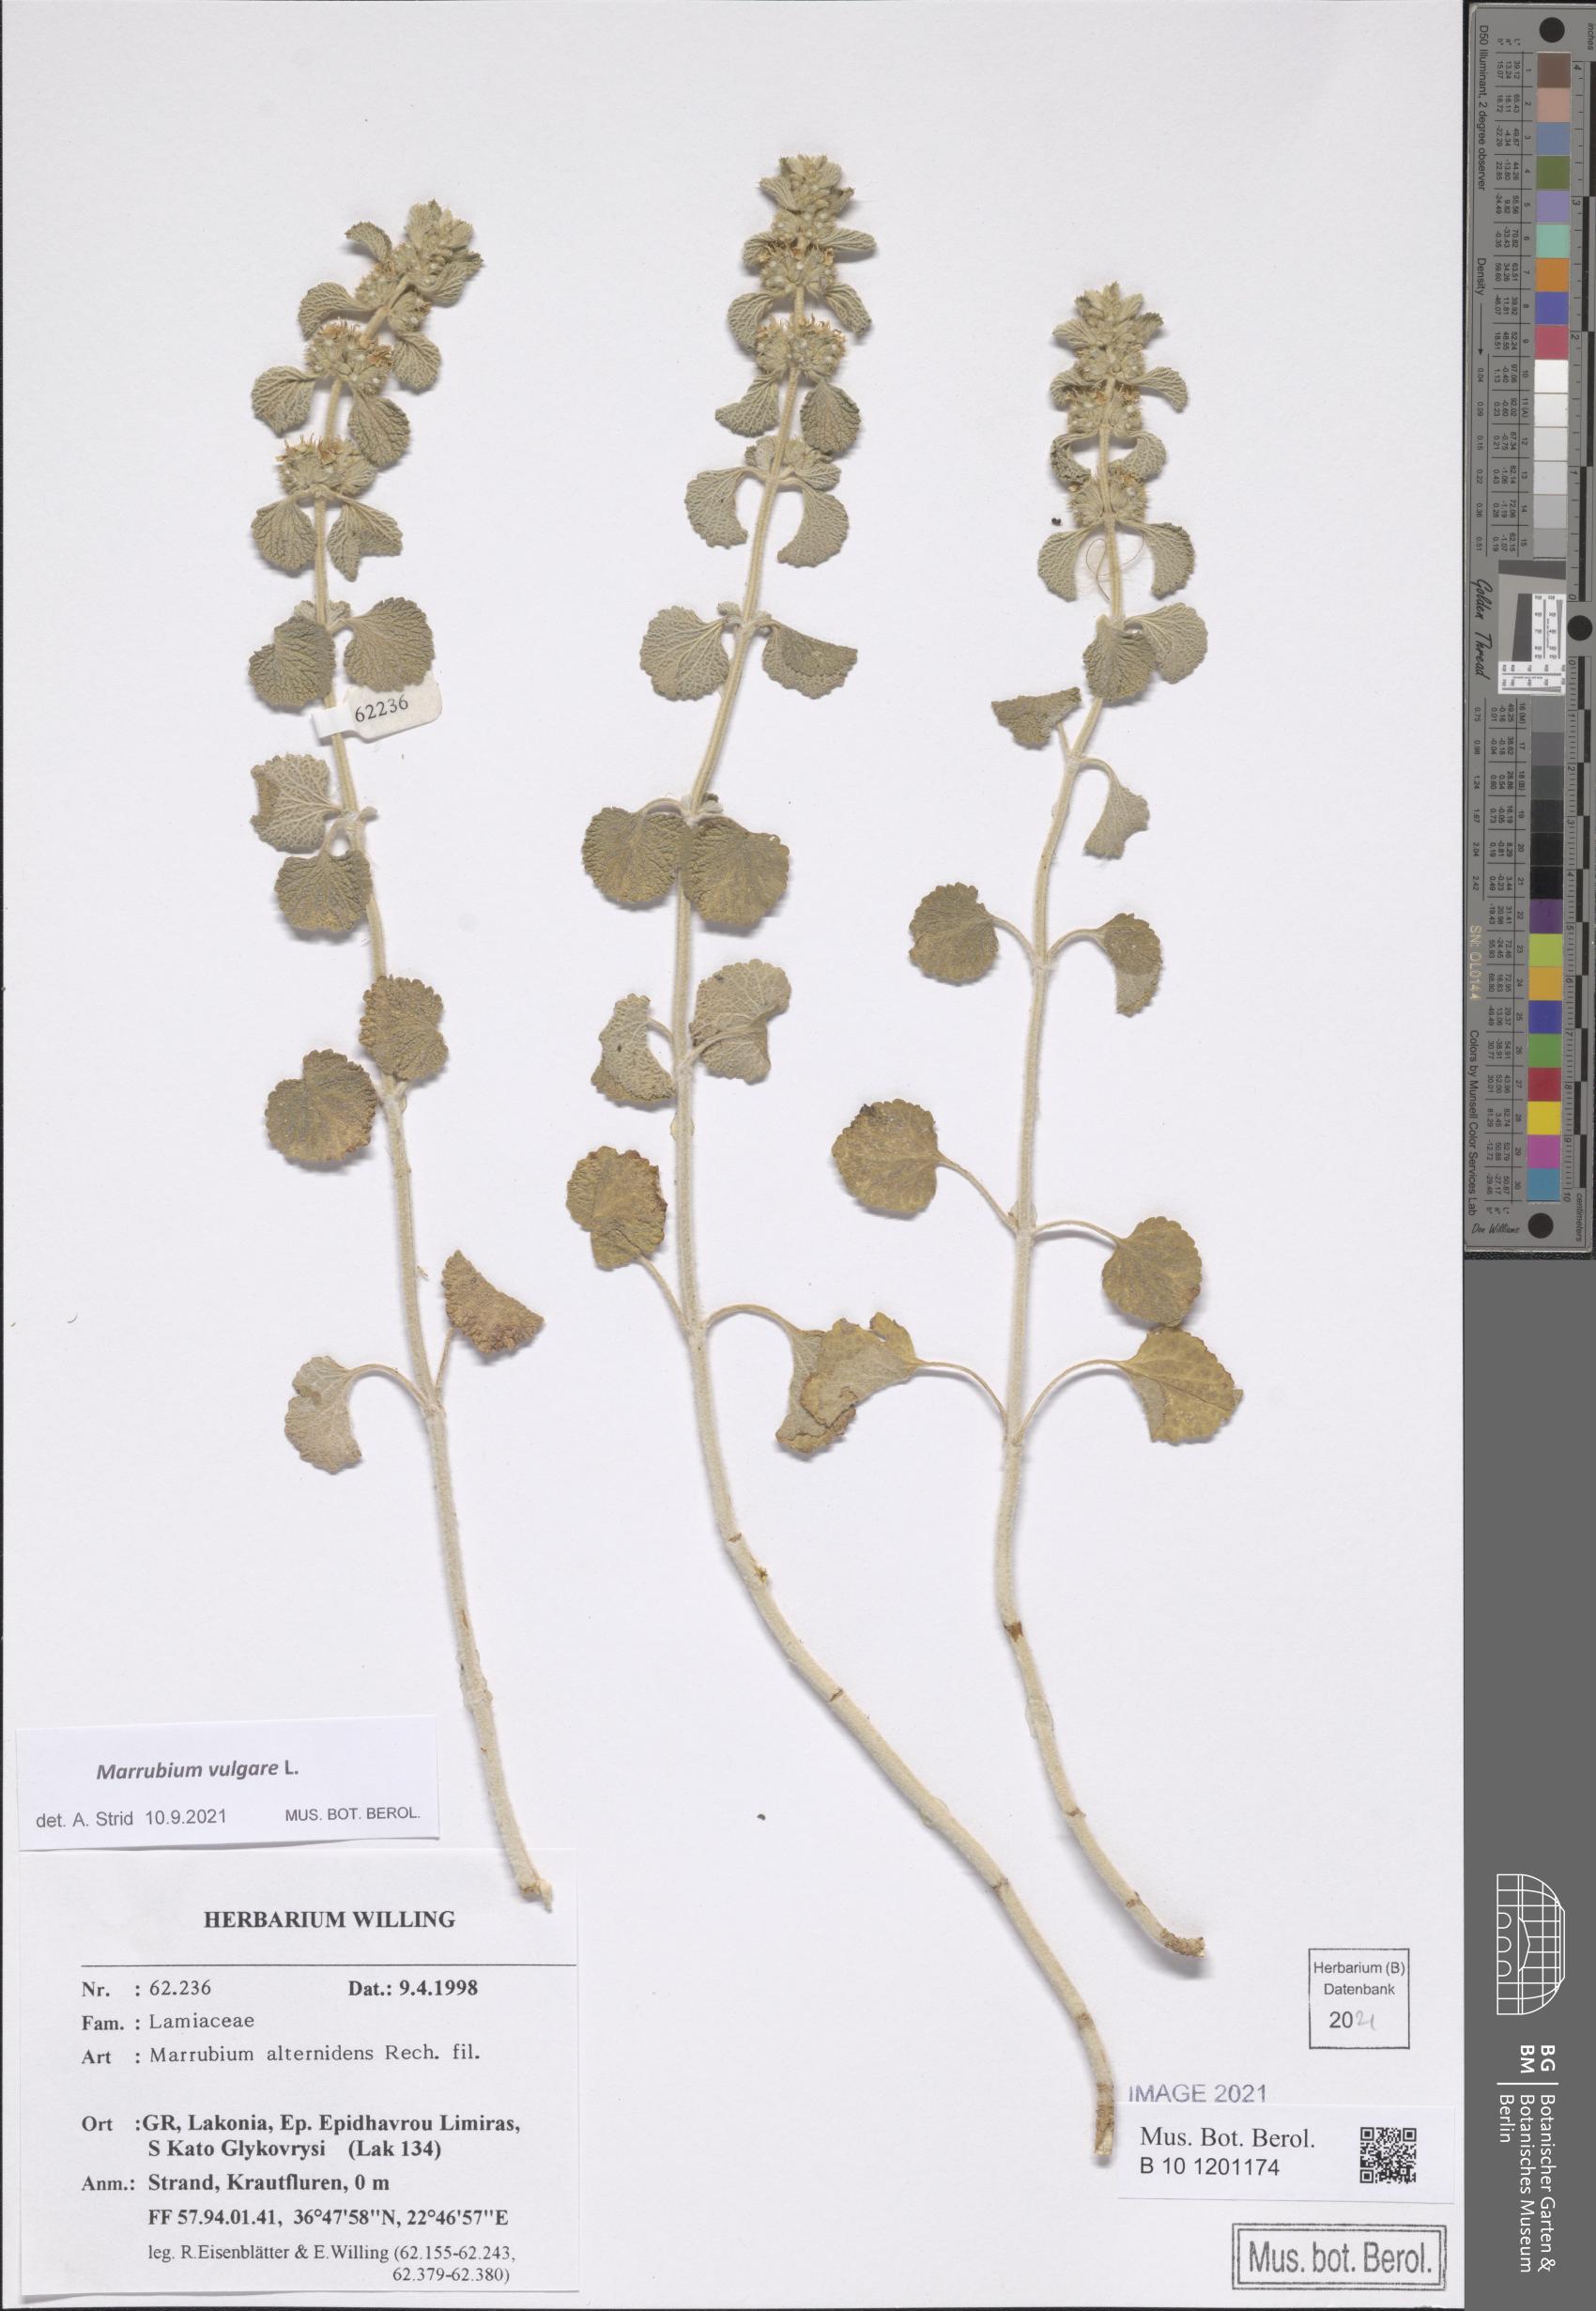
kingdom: Plantae
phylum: Tracheophyta
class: Magnoliopsida
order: Lamiales
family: Lamiaceae
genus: Marrubium
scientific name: Marrubium vulgare
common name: Horehound
